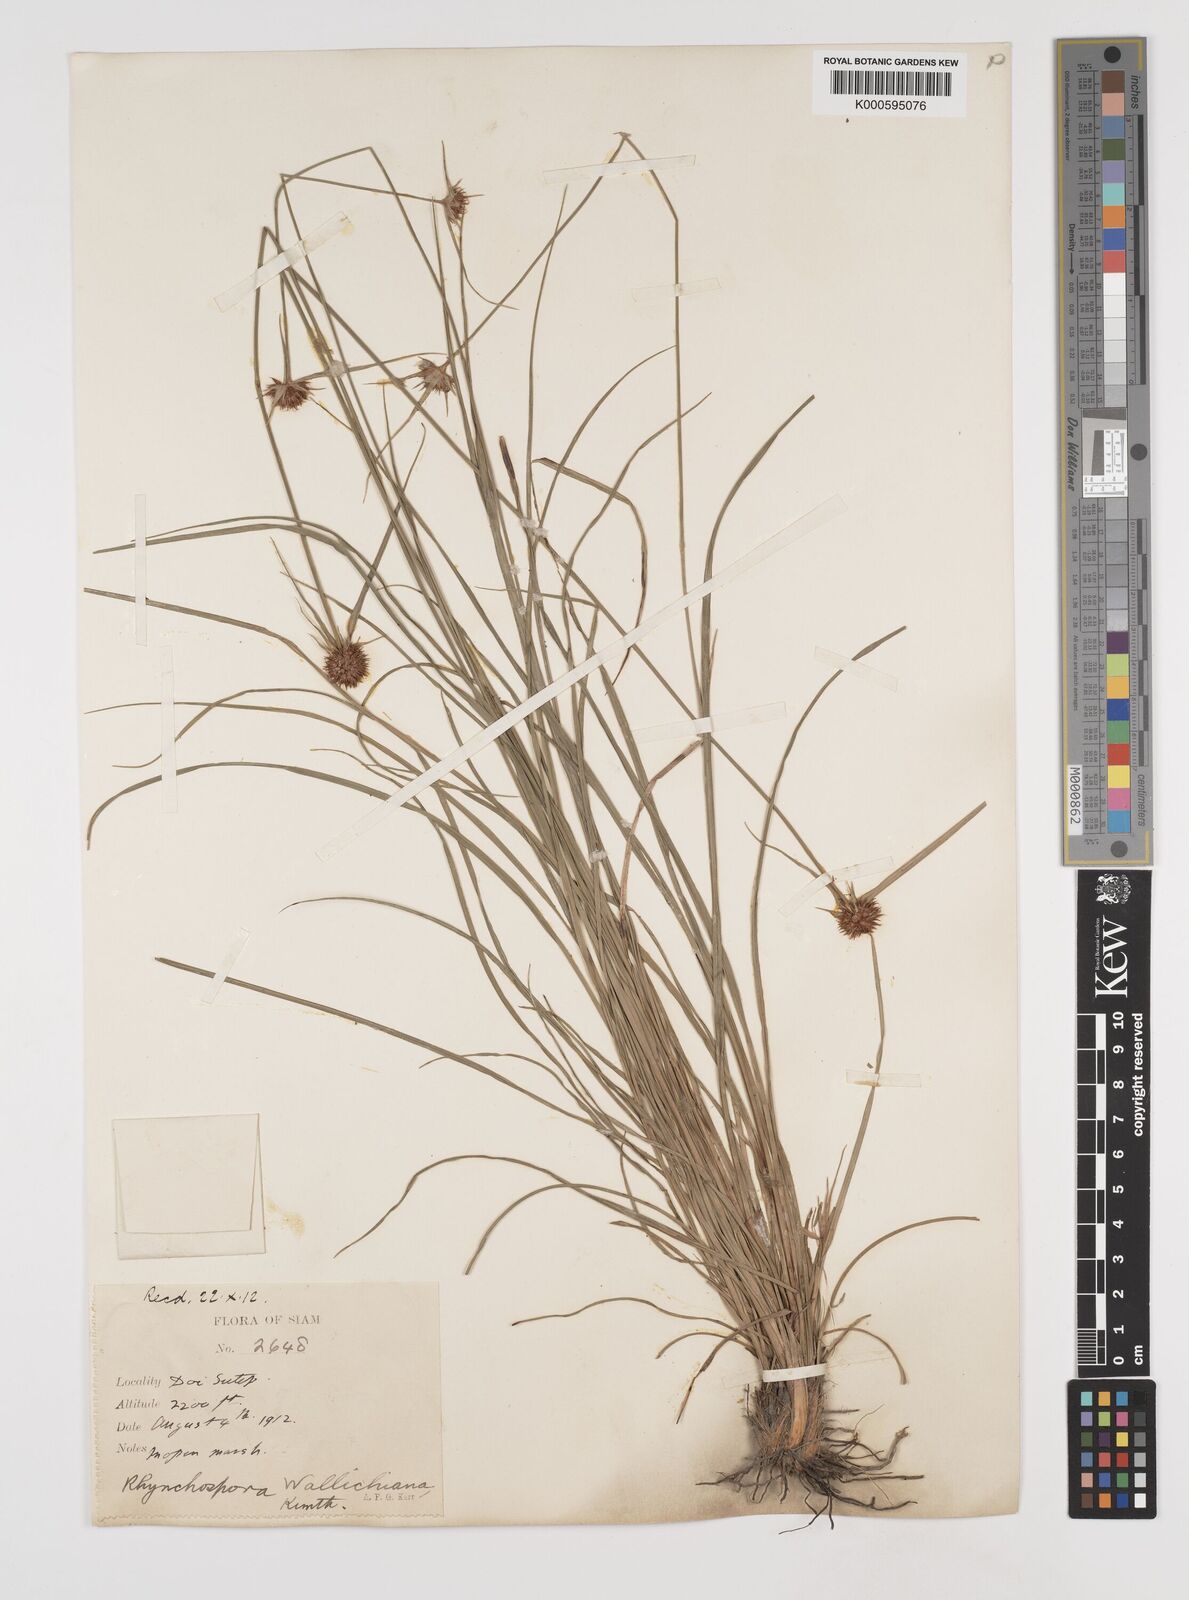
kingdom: Plantae
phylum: Tracheophyta
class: Liliopsida
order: Poales
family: Cyperaceae
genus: Rhynchospora
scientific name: Rhynchospora rubra
